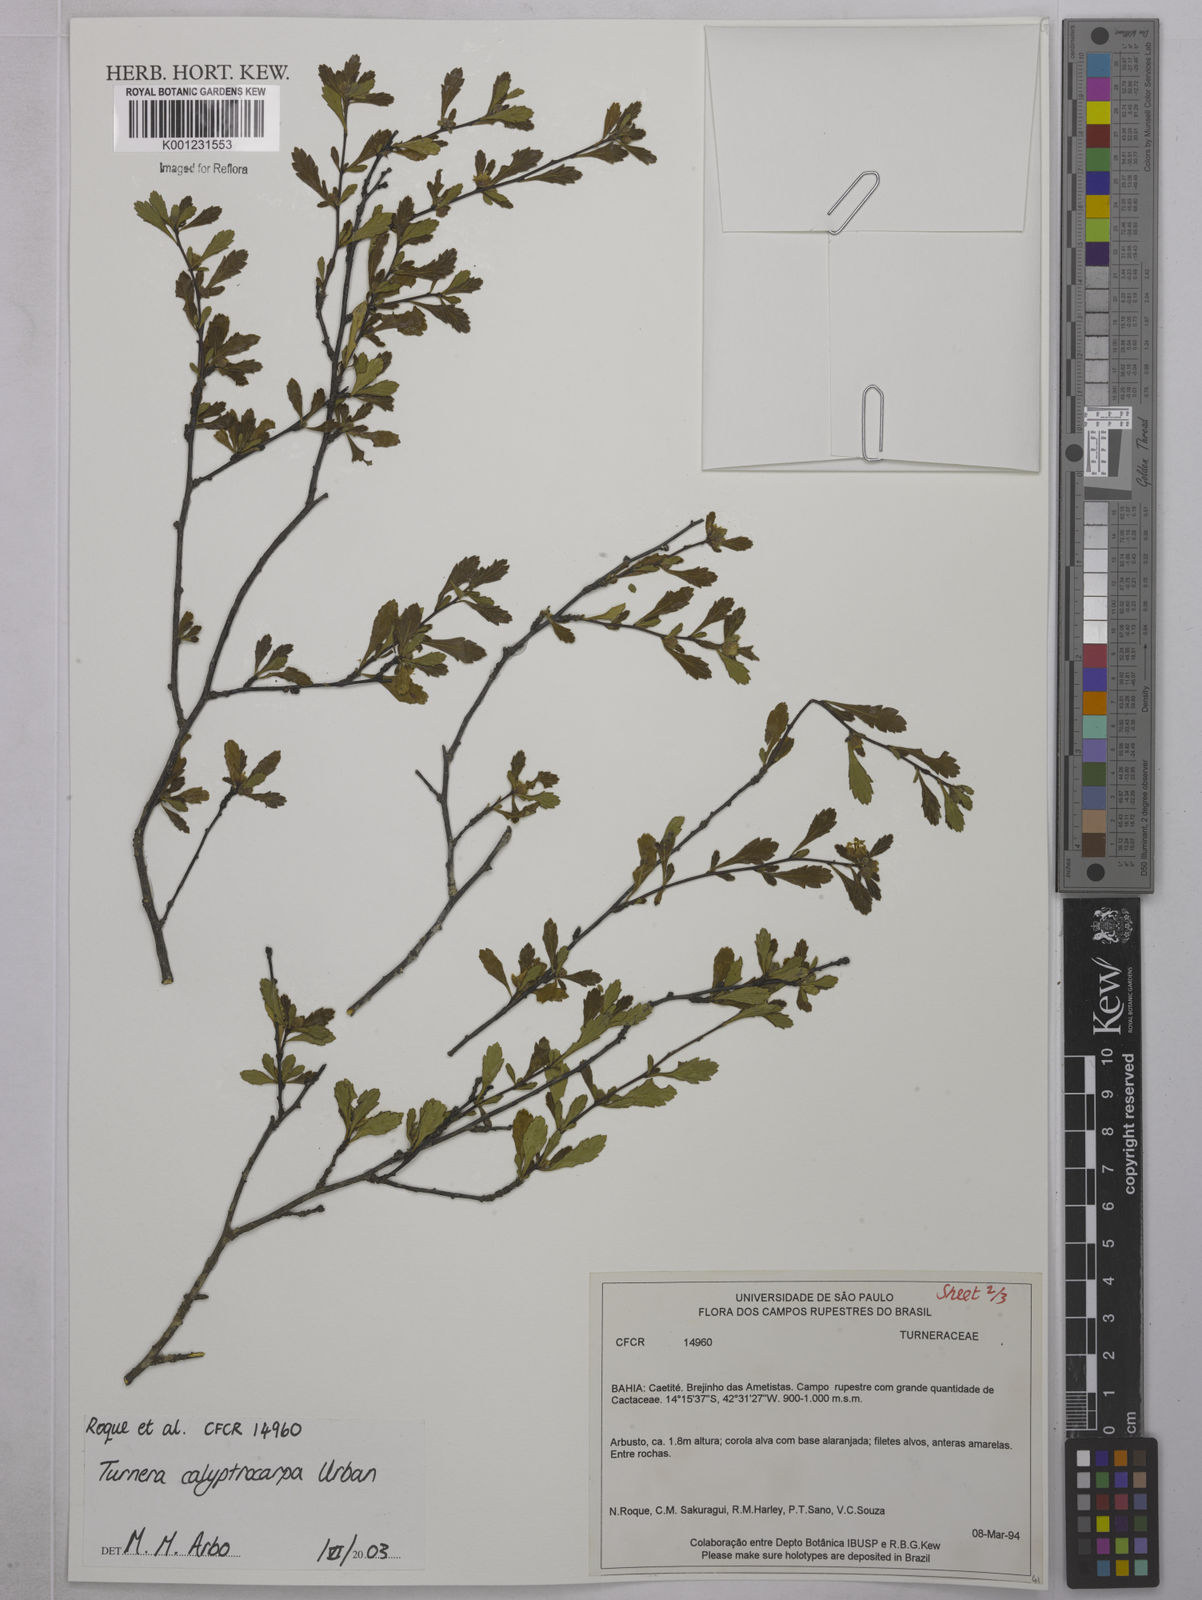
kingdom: Plantae
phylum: Tracheophyta
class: Magnoliopsida
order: Malpighiales
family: Turneraceae
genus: Oxossia
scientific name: Oxossia calyptrocarpa
